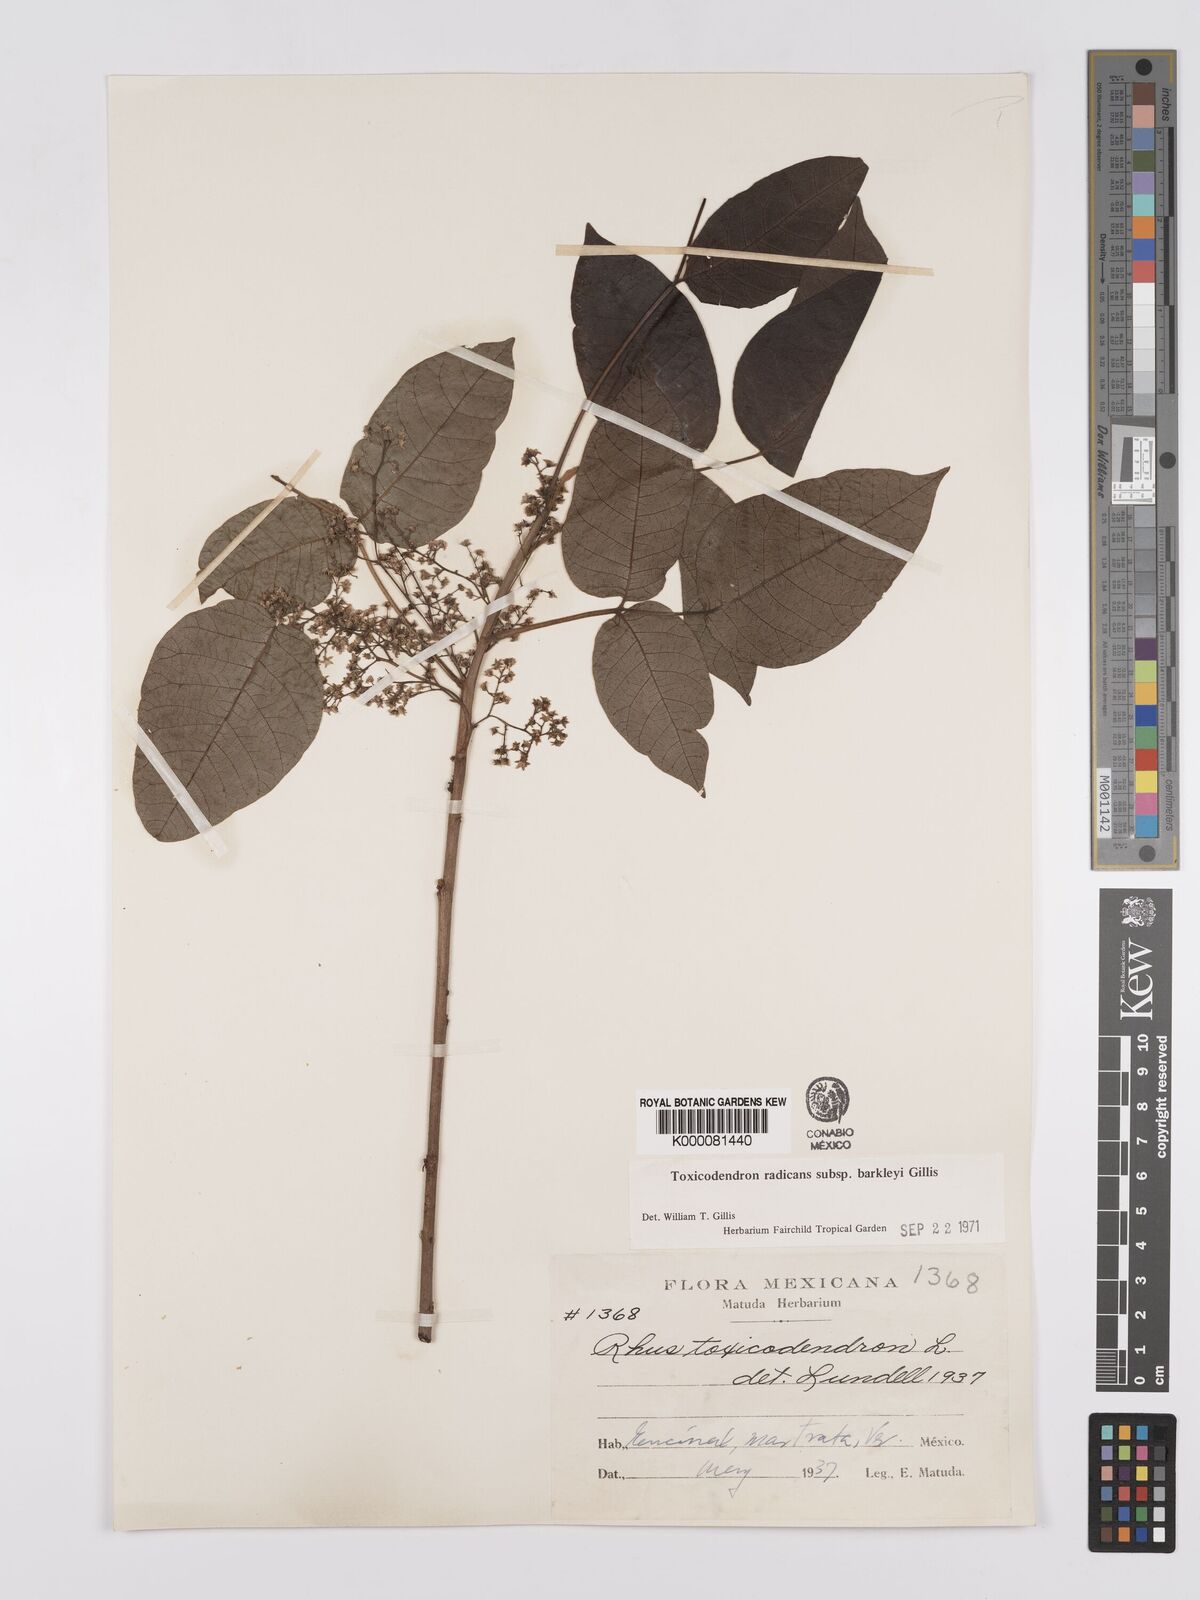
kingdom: Plantae
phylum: Tracheophyta
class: Magnoliopsida
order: Sapindales
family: Anacardiaceae
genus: Toxicodendron
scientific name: Toxicodendron radicans
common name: Poison ivy
